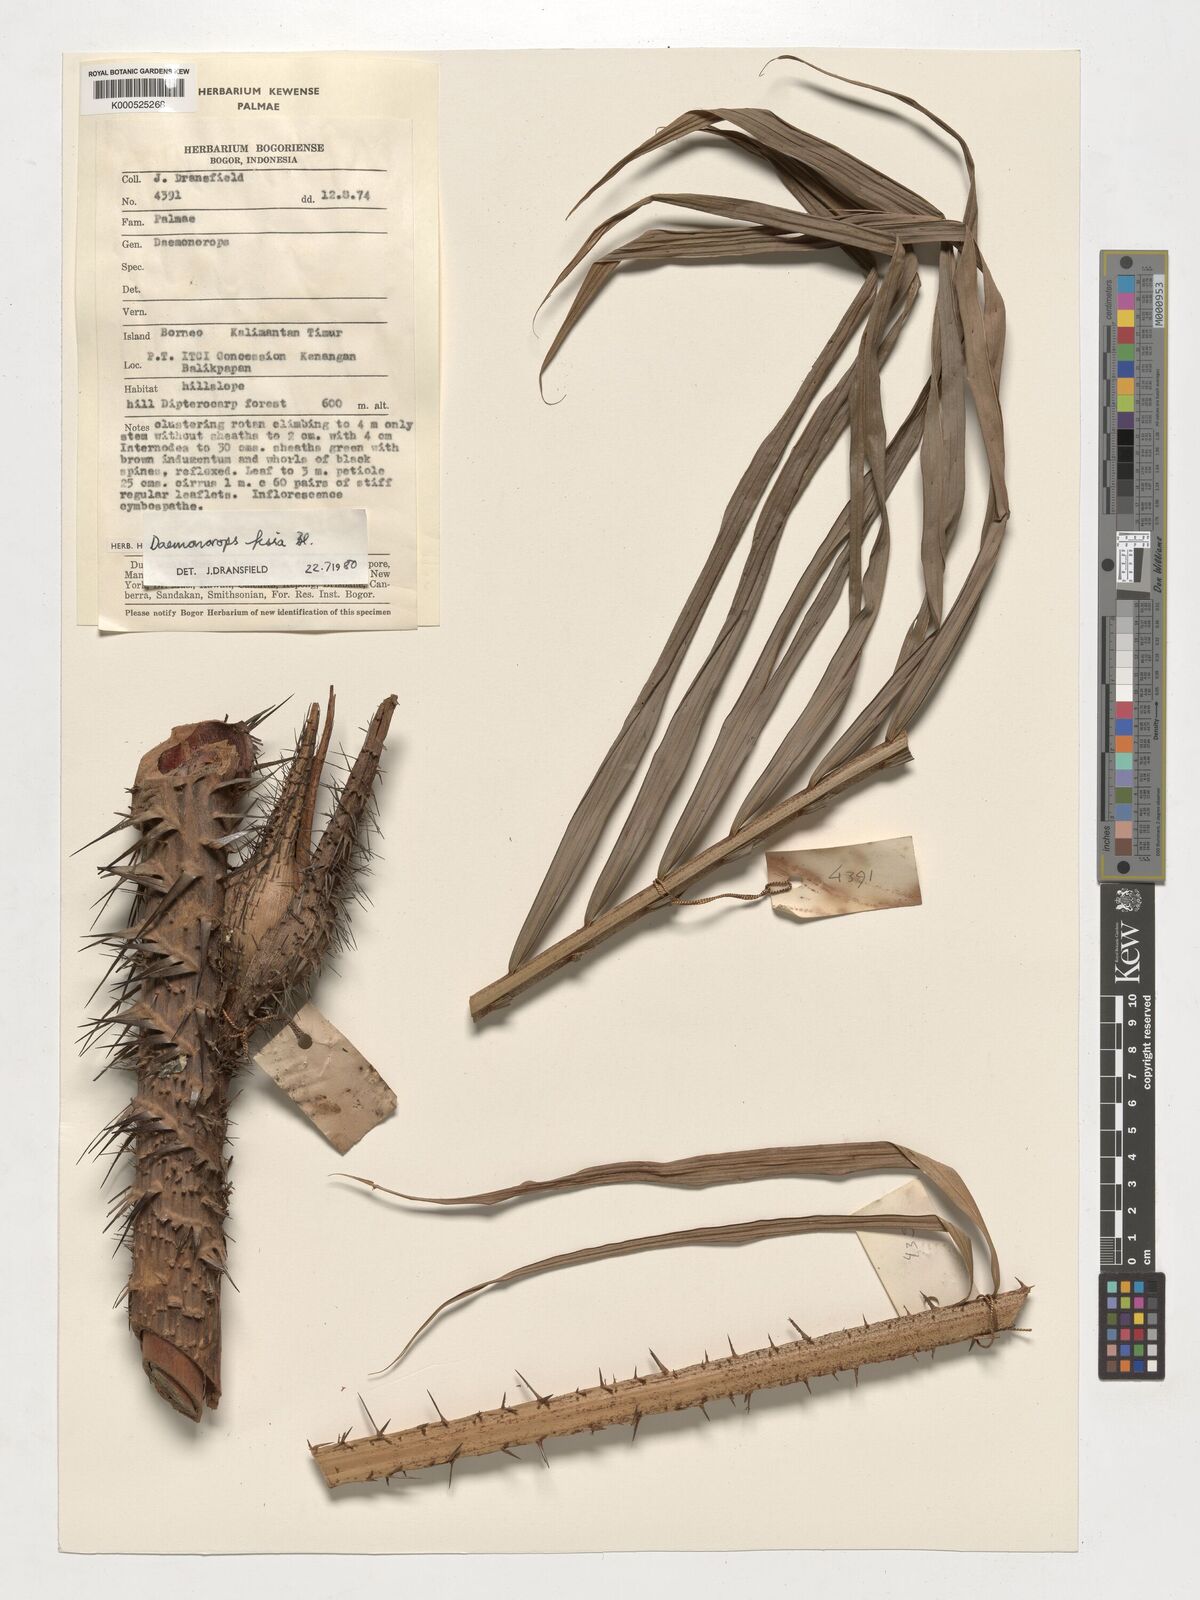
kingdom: Plantae
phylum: Tracheophyta
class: Liliopsida
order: Arecales
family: Arecaceae
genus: Calamus
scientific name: Calamus melanochaetes
